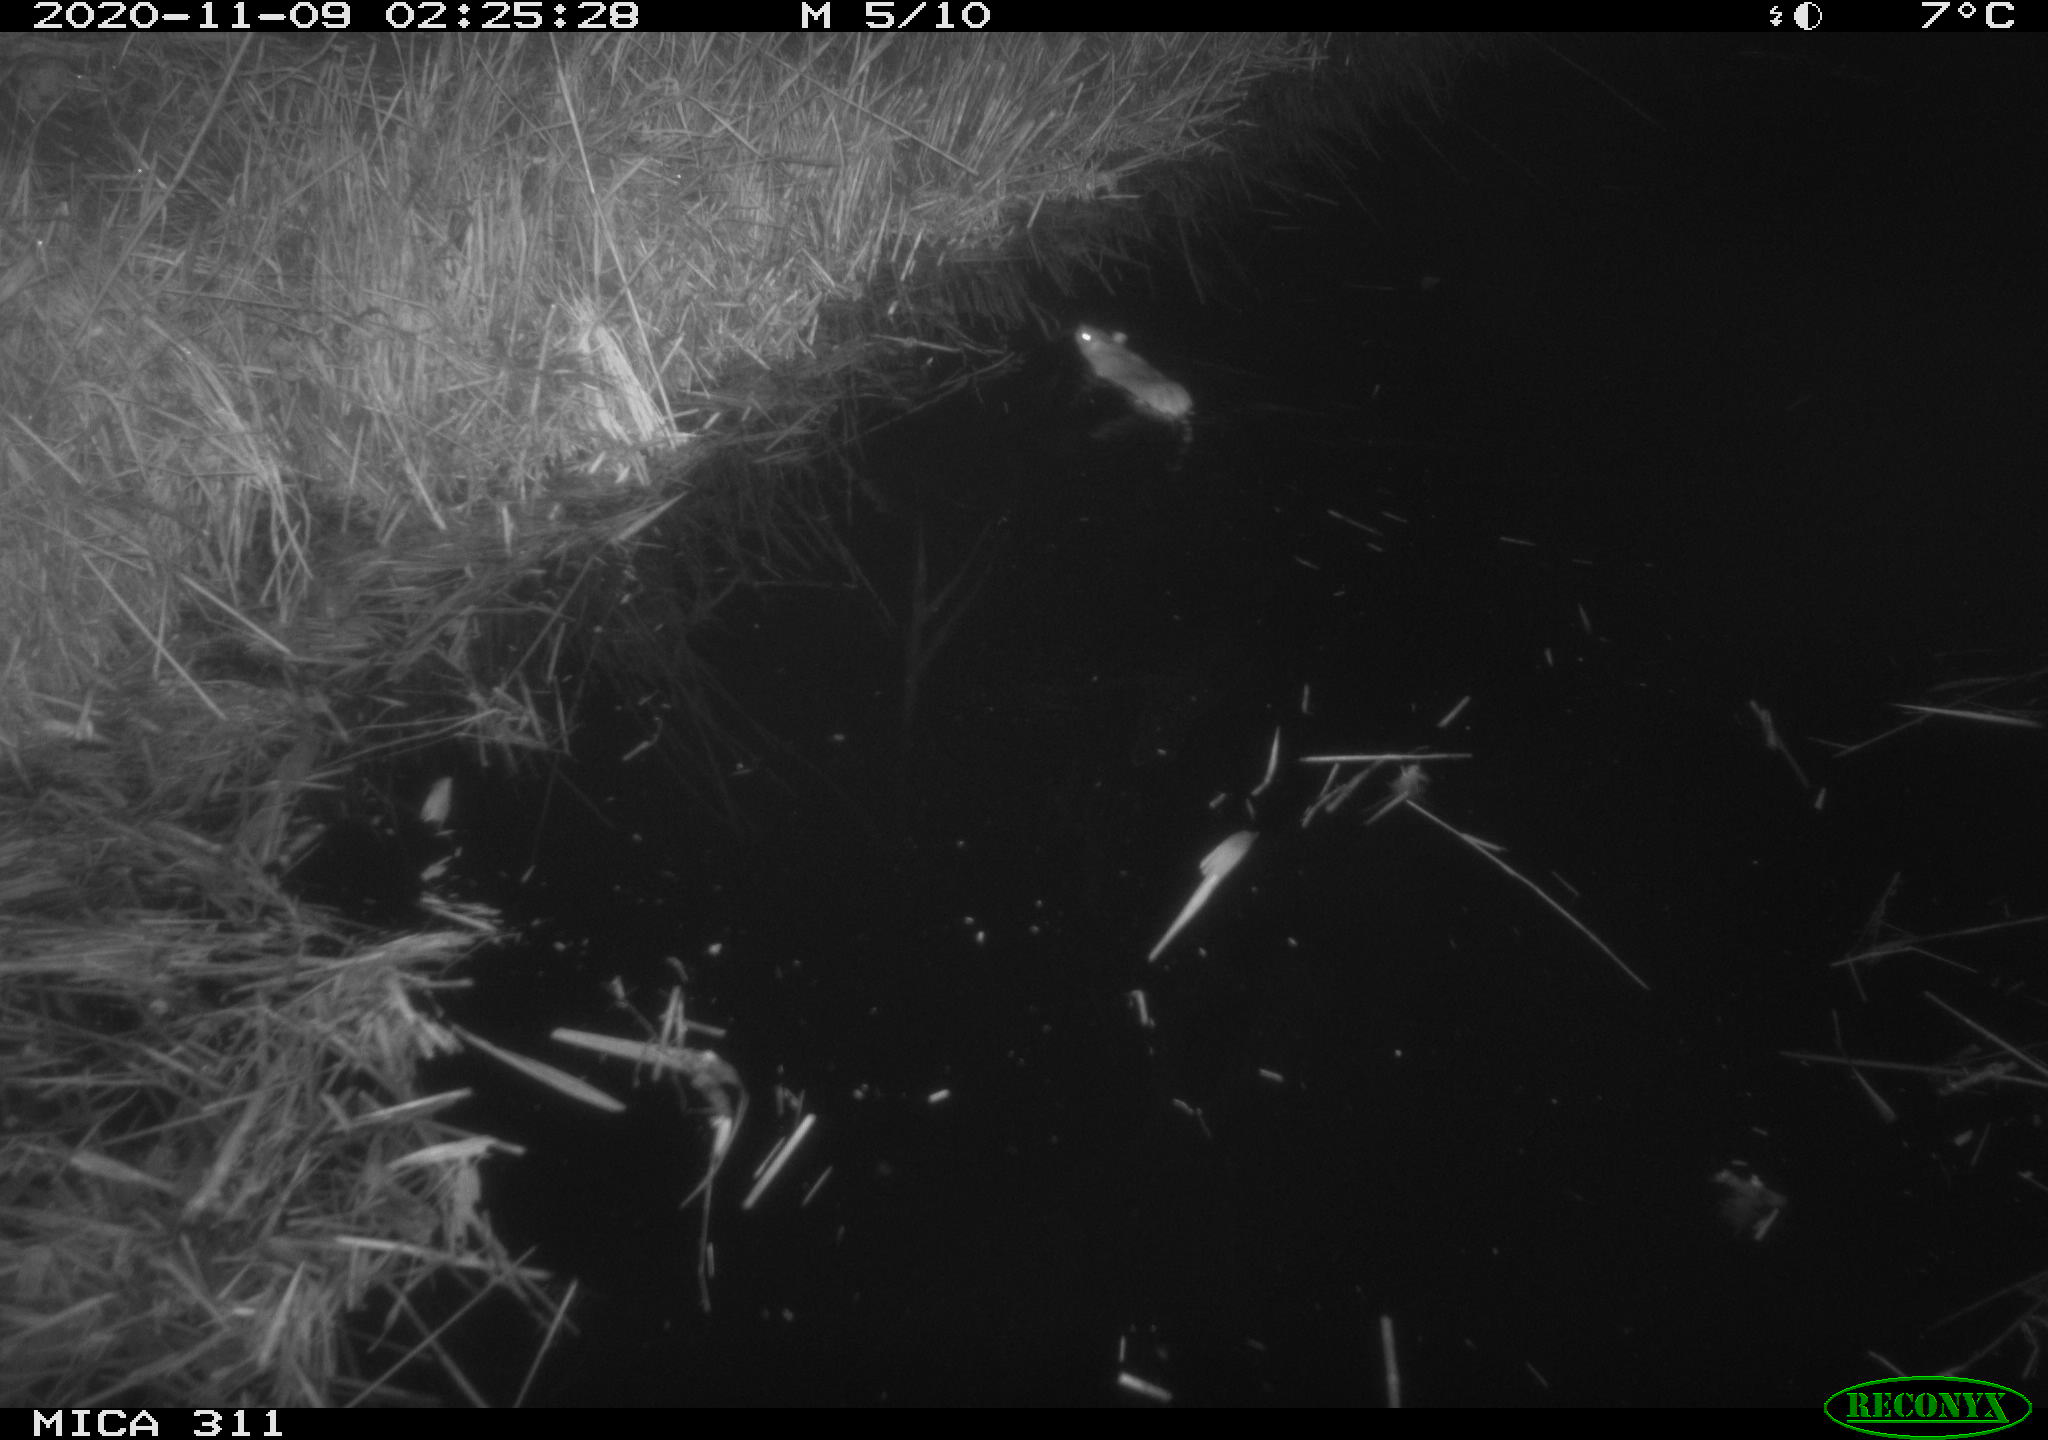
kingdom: Animalia
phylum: Chordata
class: Mammalia
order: Rodentia
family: Muridae
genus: Rattus
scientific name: Rattus norvegicus
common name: Brown rat
